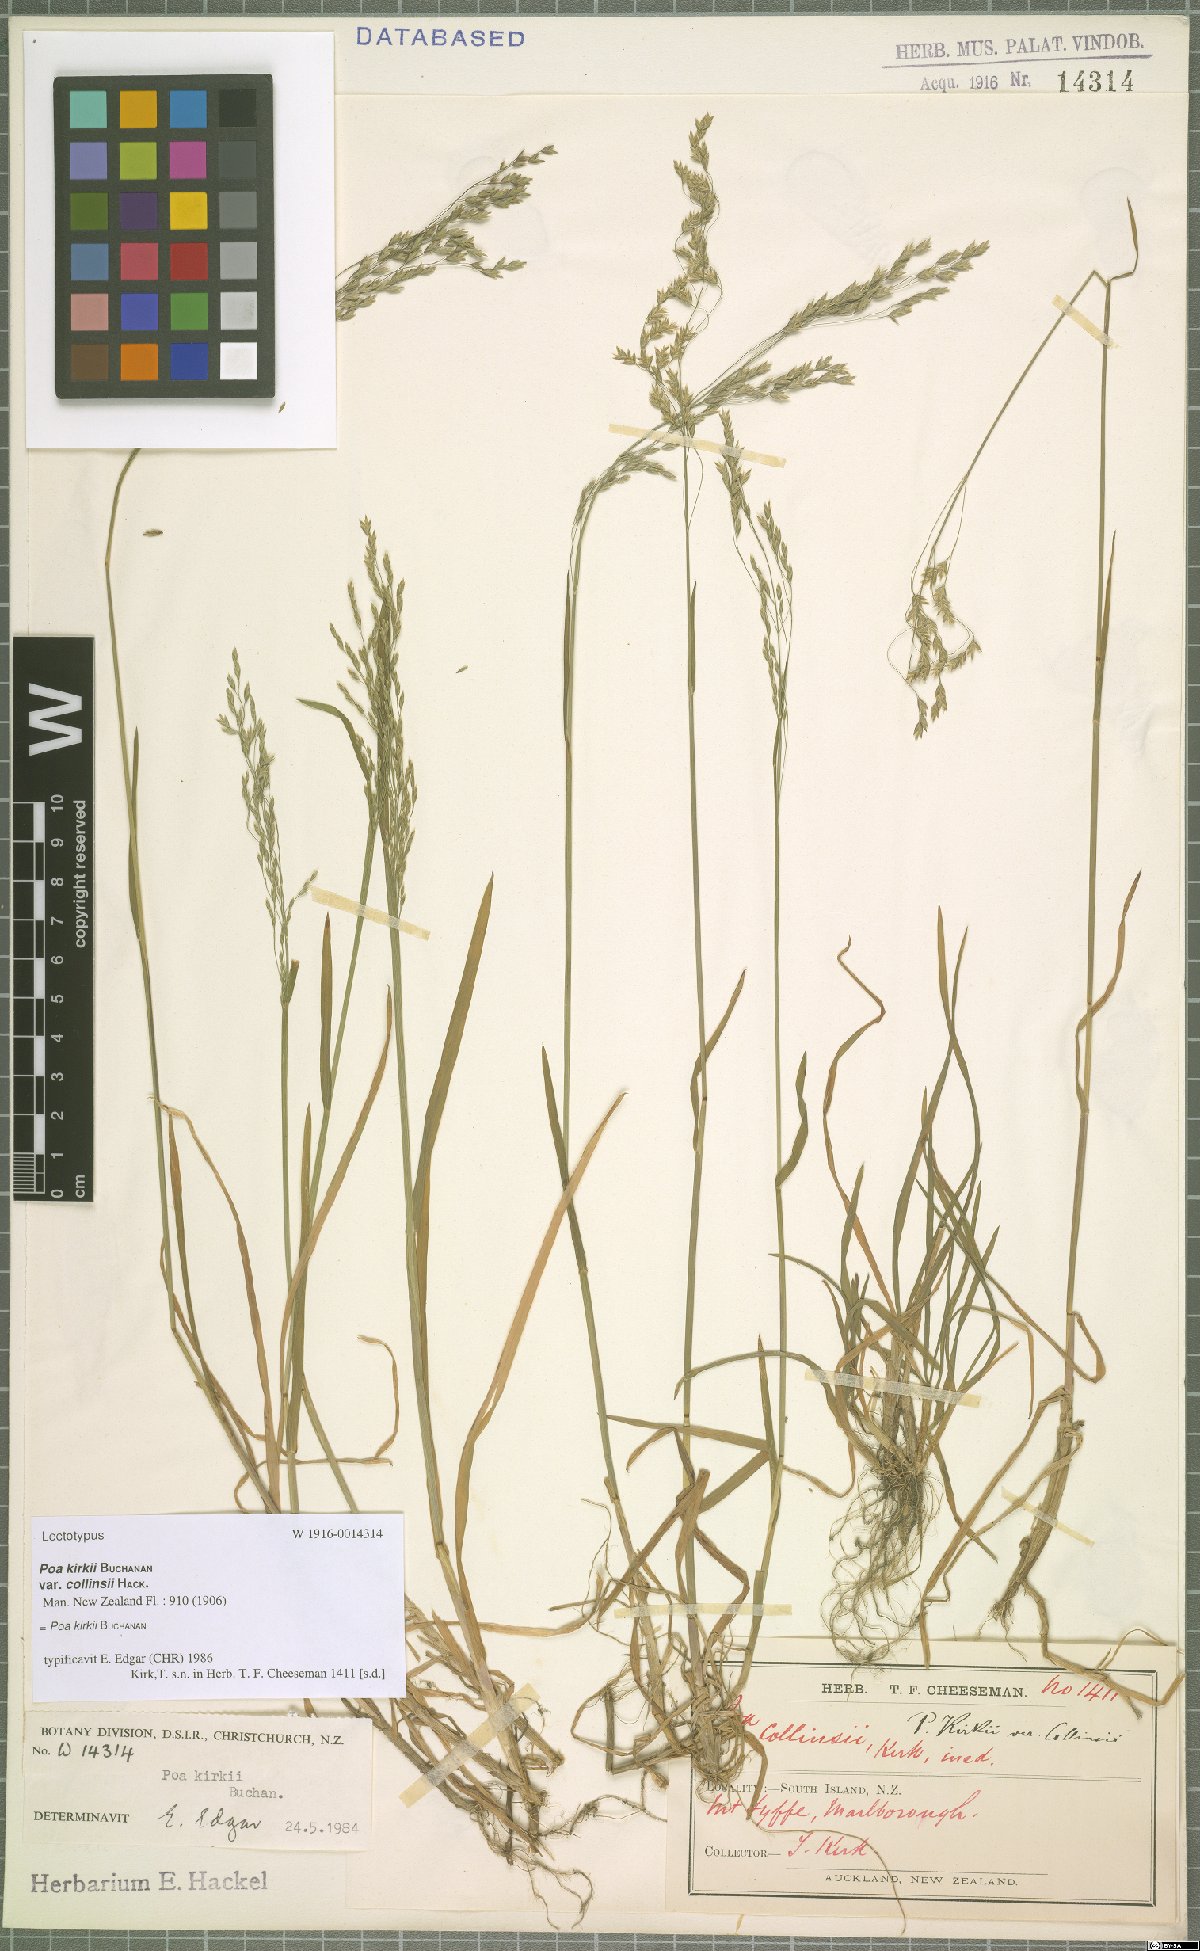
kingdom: Plantae
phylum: Tracheophyta
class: Liliopsida
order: Poales
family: Poaceae
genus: Poa
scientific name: Poa kirkii
